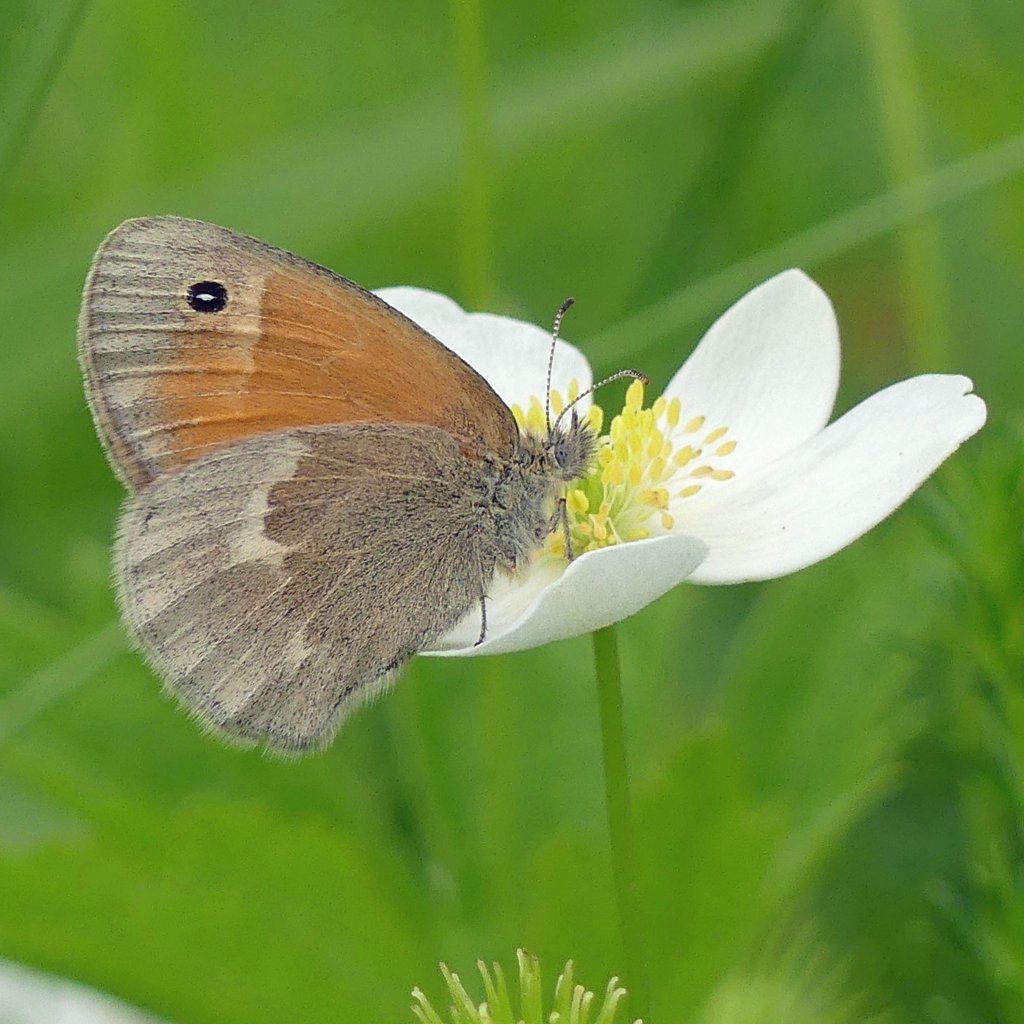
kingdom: Animalia
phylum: Arthropoda
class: Insecta
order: Lepidoptera
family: Nymphalidae
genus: Coenonympha
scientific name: Coenonympha tullia
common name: Large Heath
